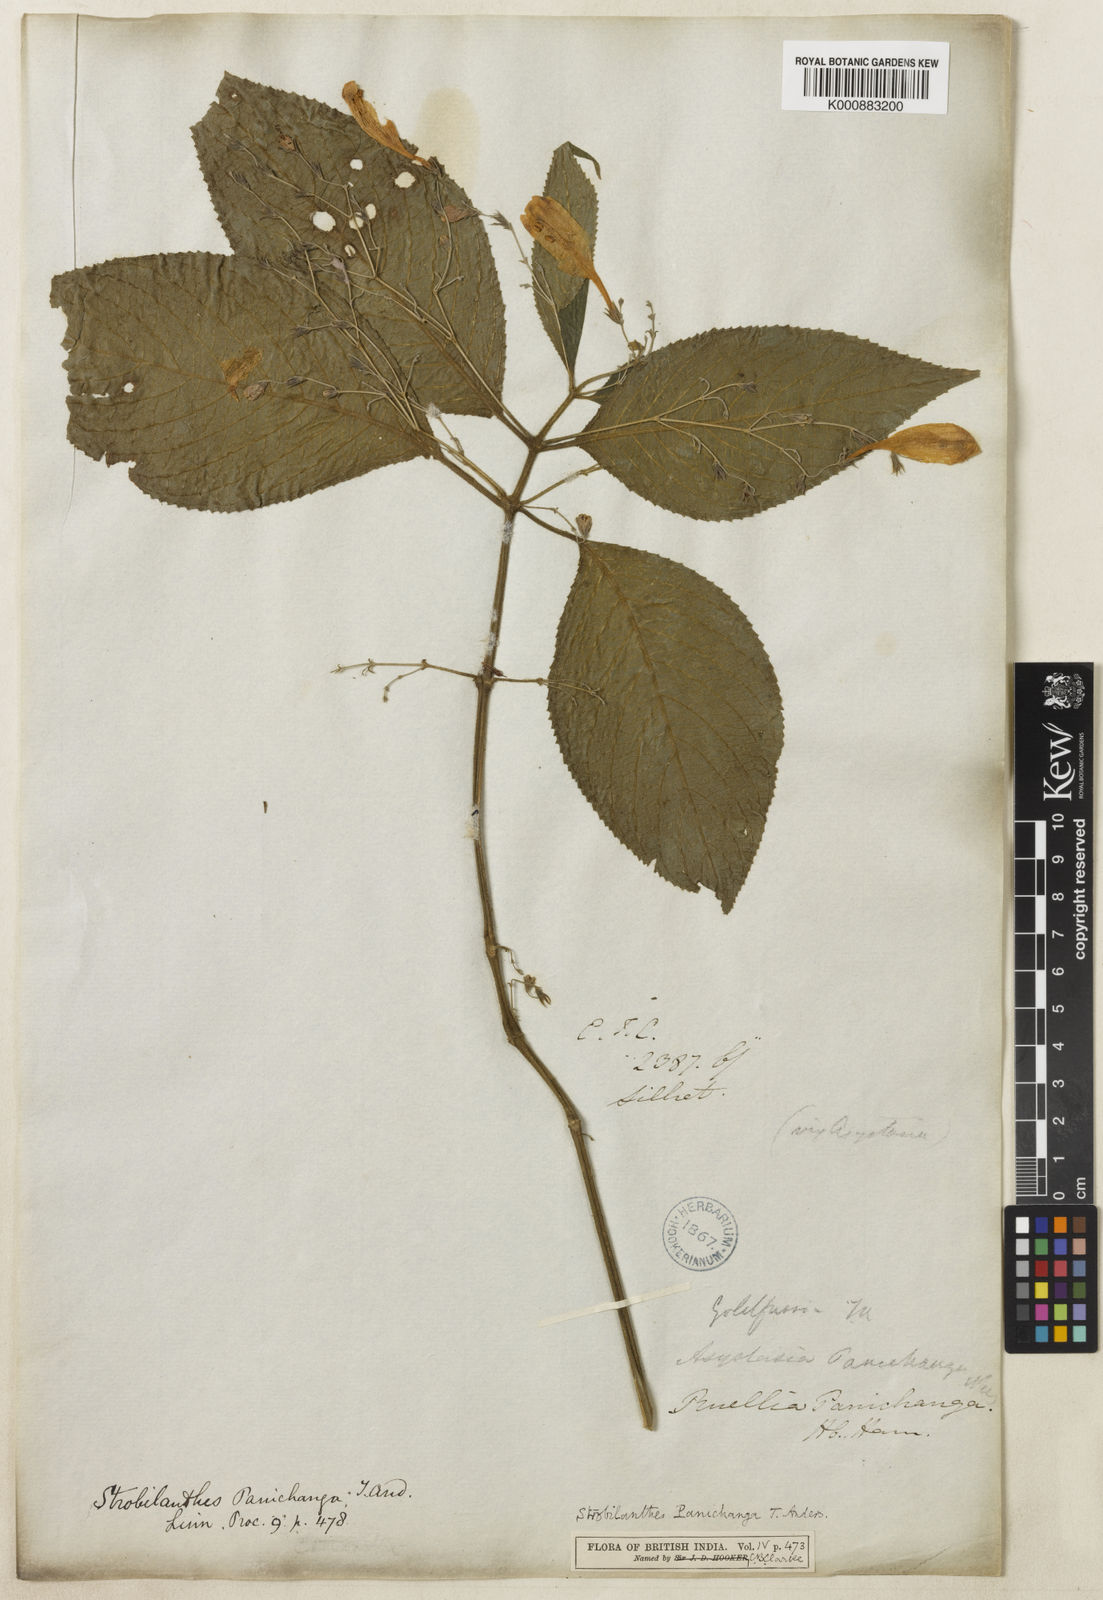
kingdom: Plantae
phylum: Tracheophyta
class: Magnoliopsida
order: Lamiales
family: Acanthaceae
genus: Strobilanthes
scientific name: Strobilanthes panichanga
